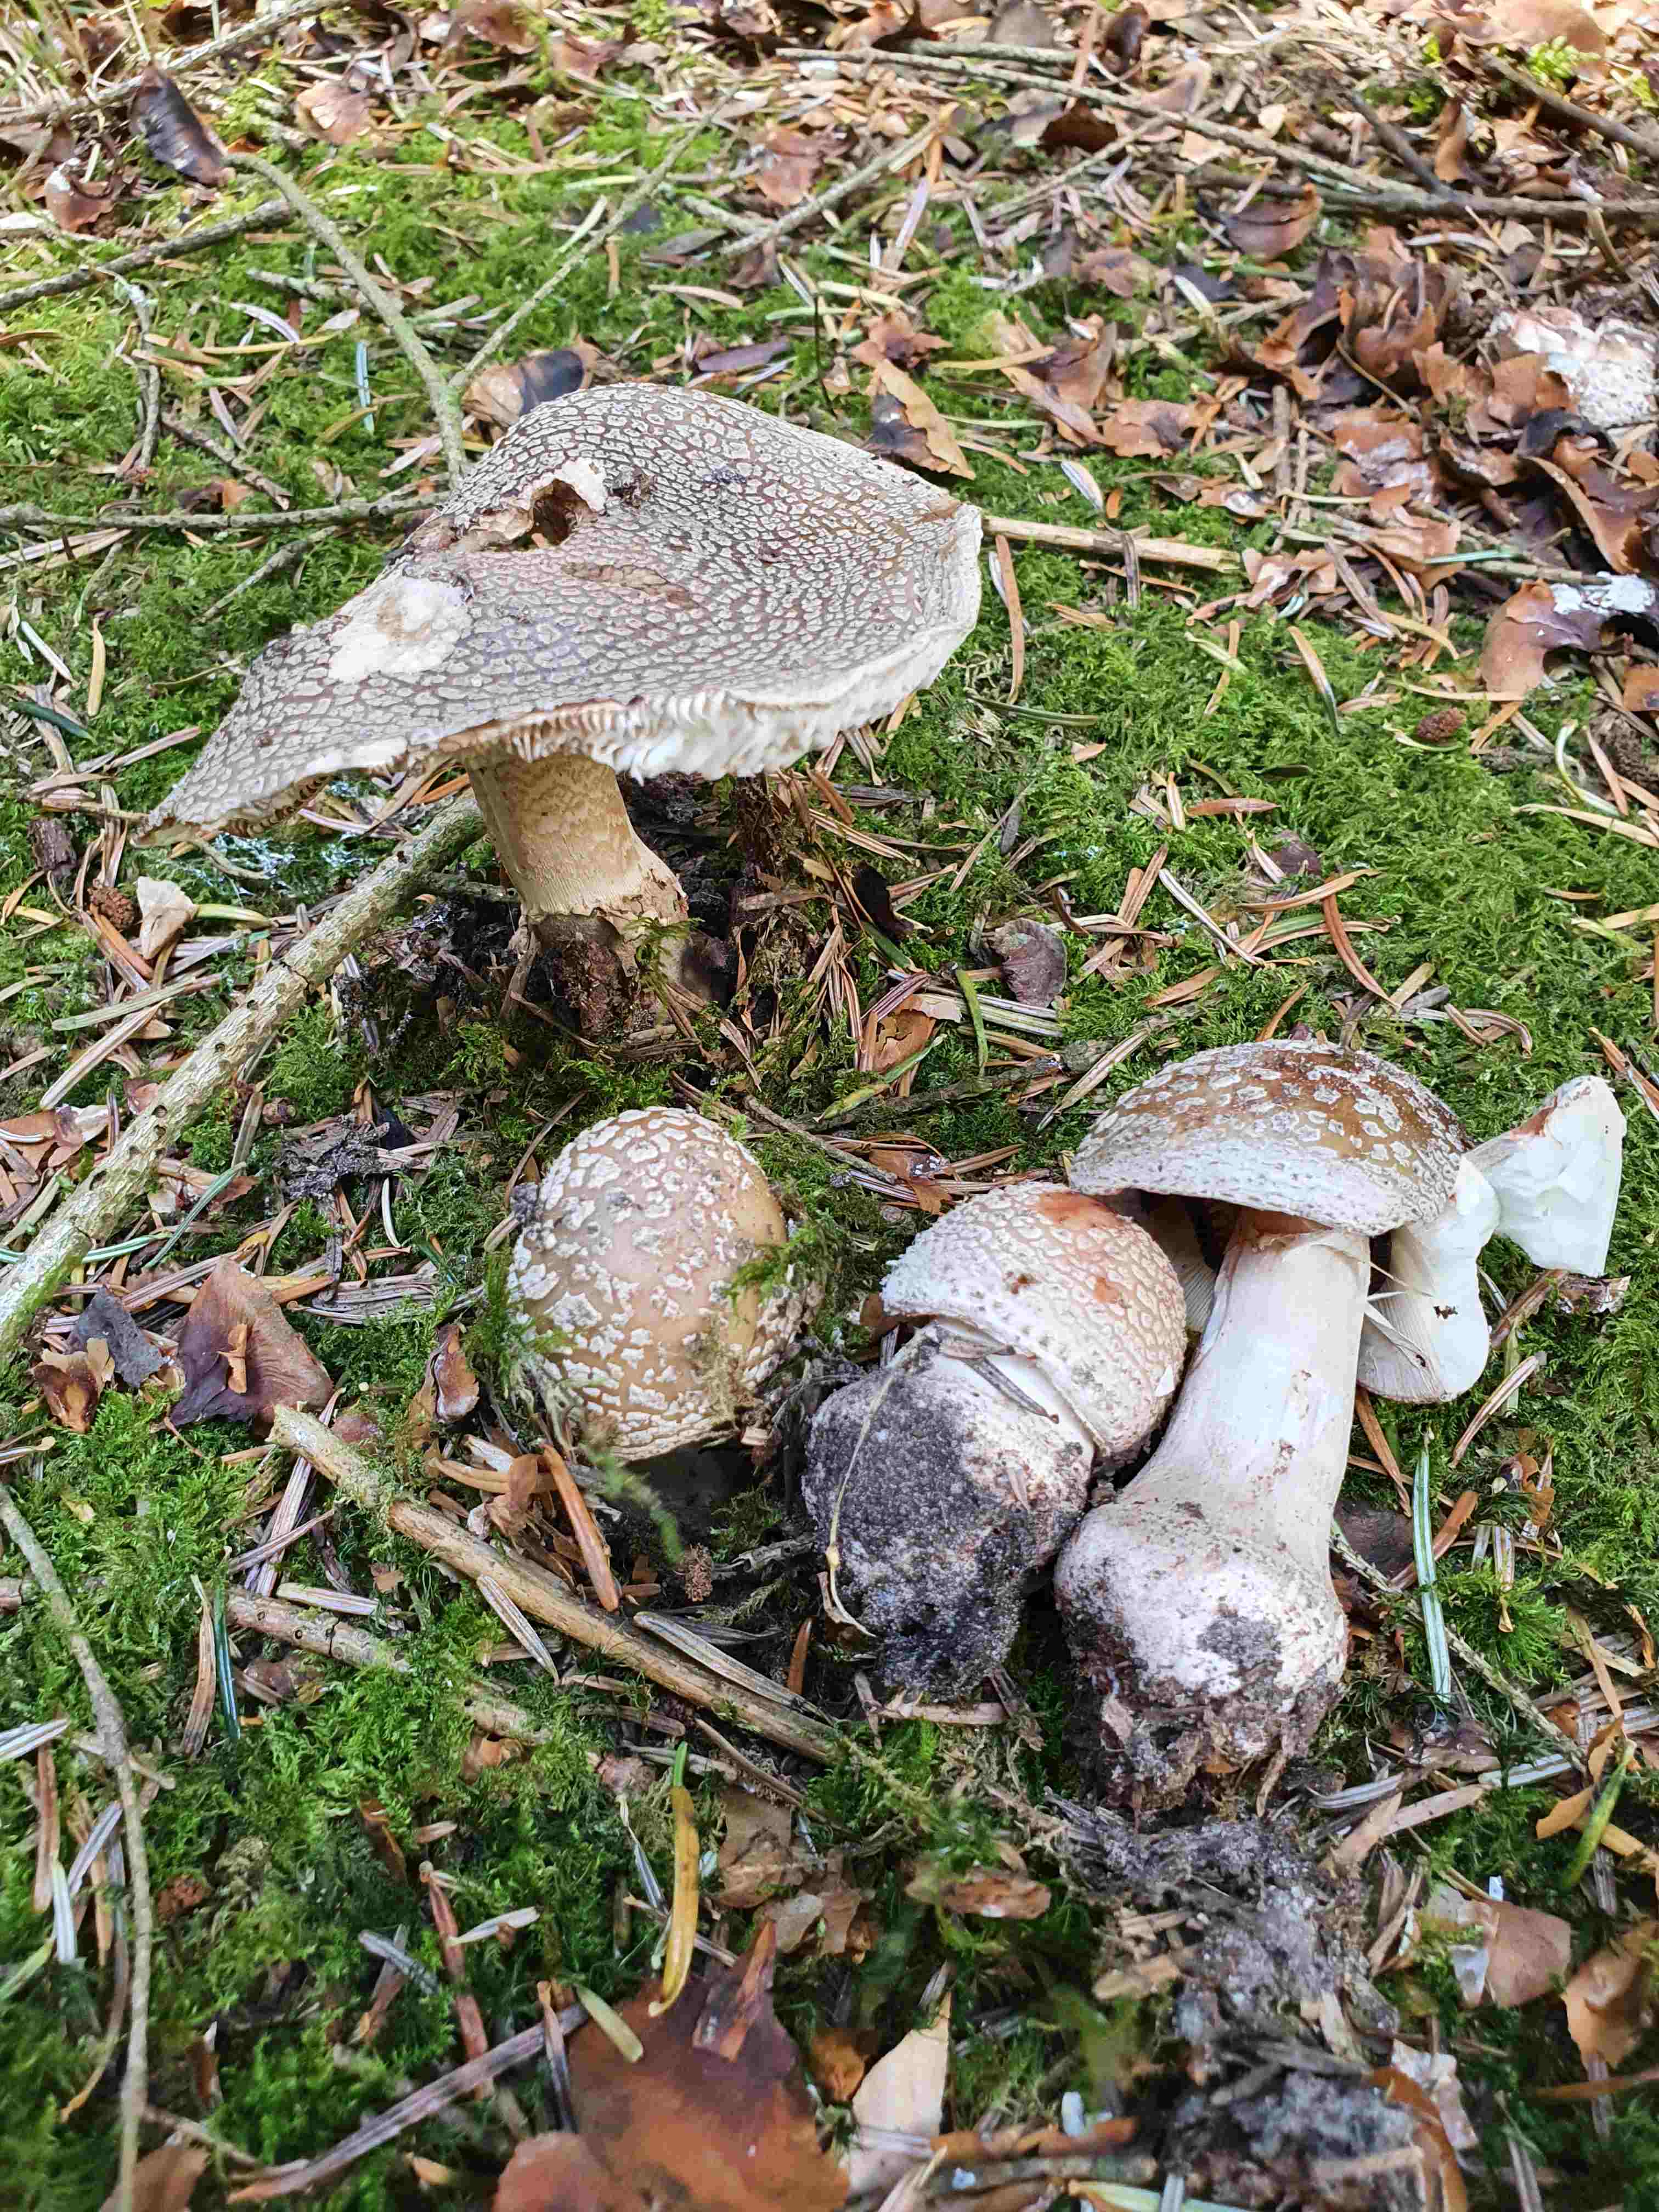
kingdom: Fungi
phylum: Basidiomycota
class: Agaricomycetes
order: Agaricales
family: Amanitaceae
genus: Amanita
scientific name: Amanita rubescens
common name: rødmende fluesvamp
